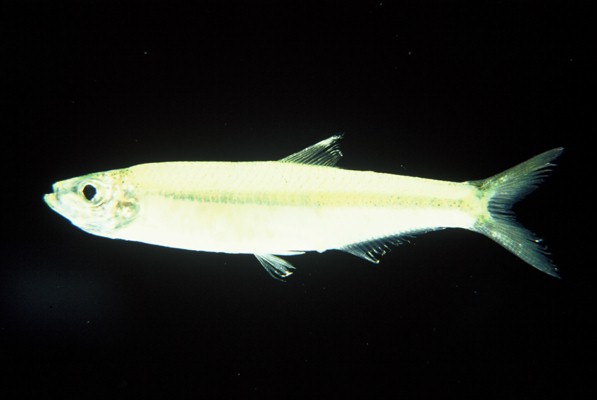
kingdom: Animalia
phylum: Chordata
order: Clupeiformes
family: Clupeidae
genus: Gilchristella
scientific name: Gilchristella aestuaria
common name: Estuarine round-herring
